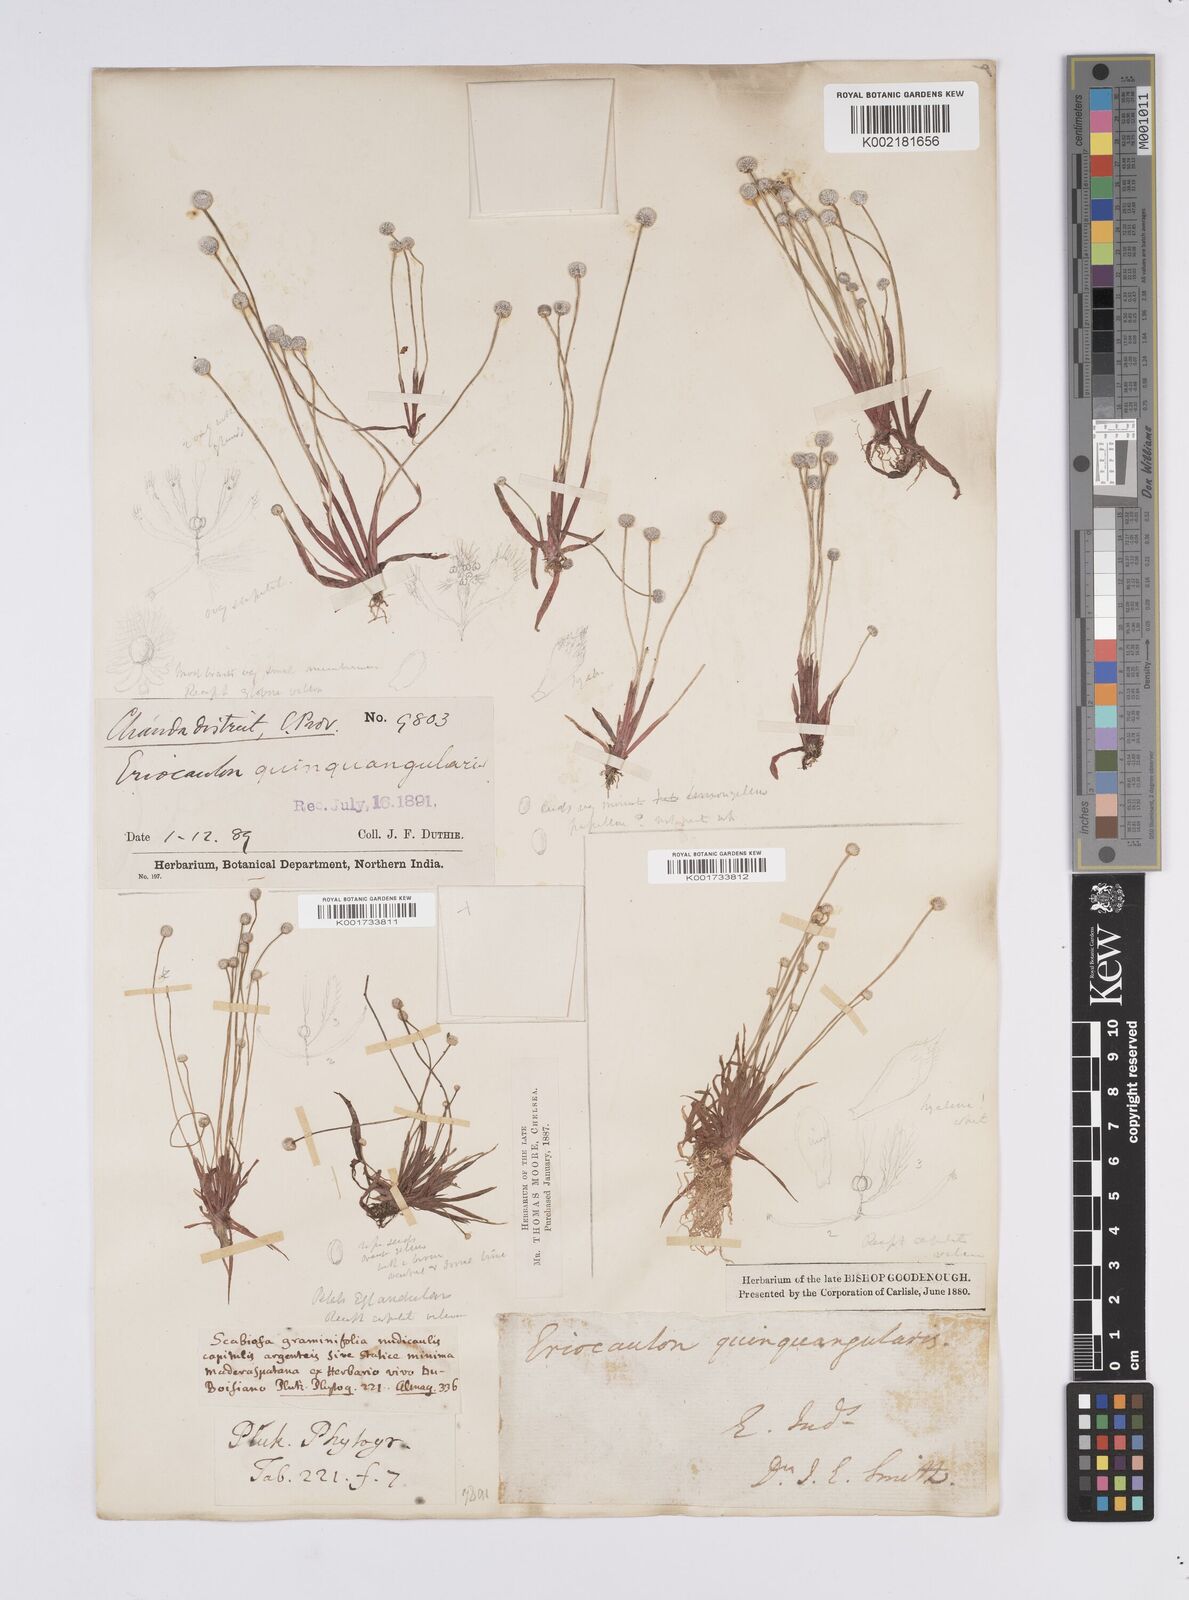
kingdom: Plantae
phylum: Tracheophyta
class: Liliopsida
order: Poales
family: Eriocaulaceae
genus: Eriocaulon
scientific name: Eriocaulon quinquangulare
